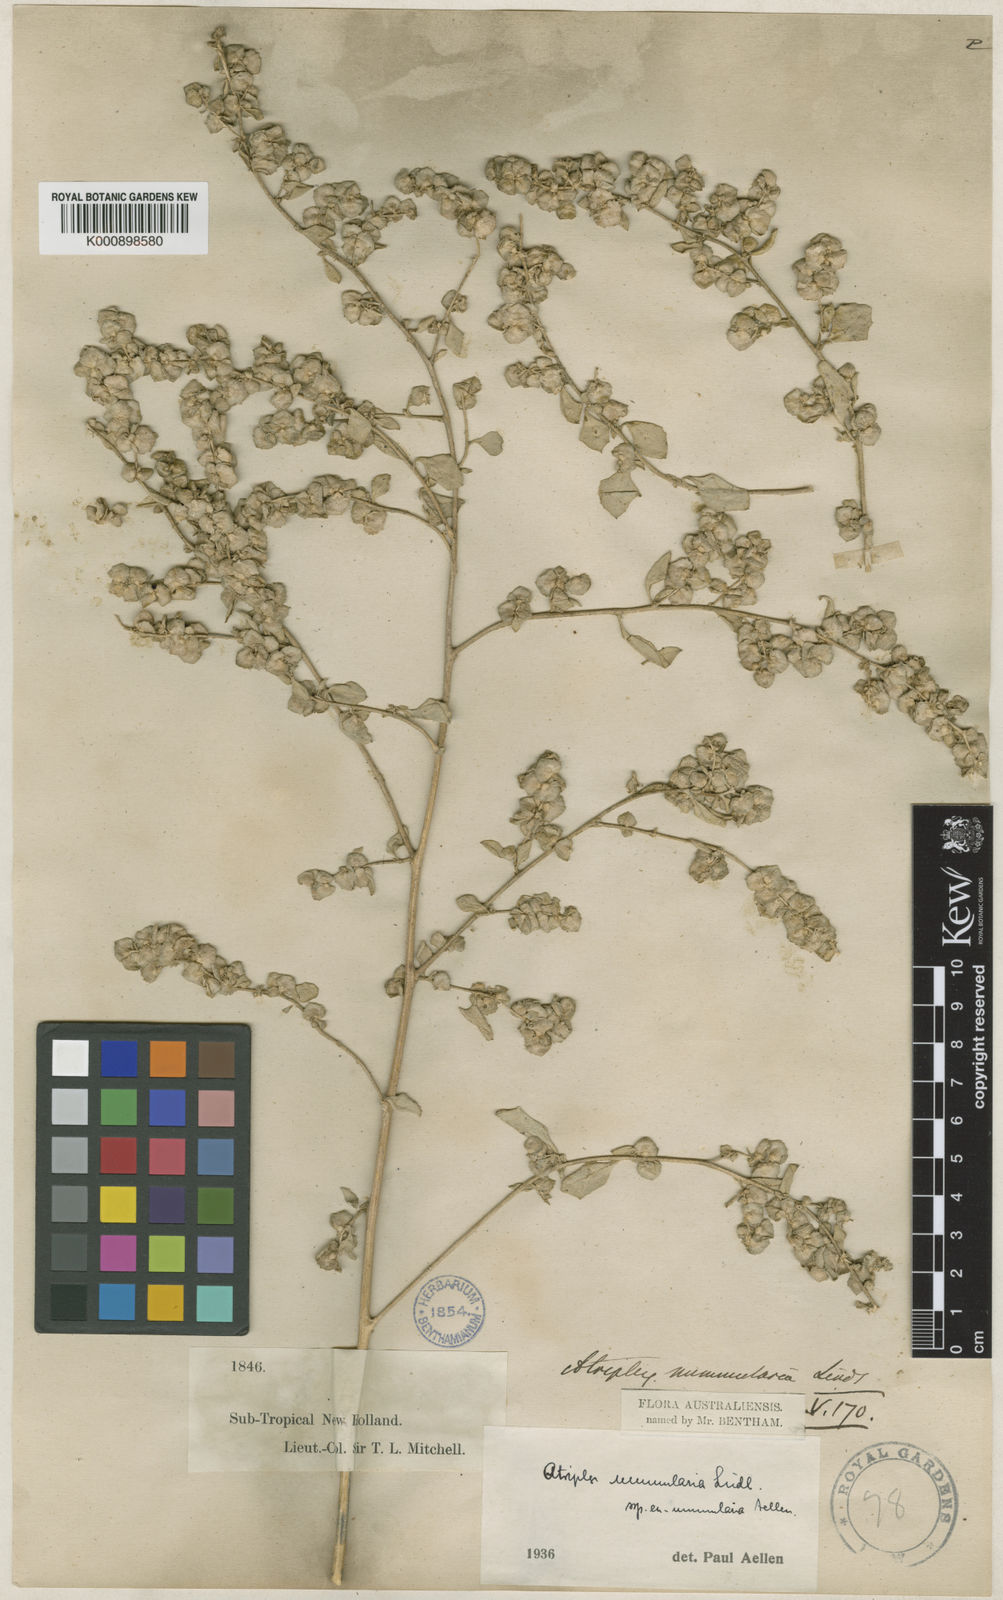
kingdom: Plantae
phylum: Tracheophyta
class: Magnoliopsida
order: Caryophyllales
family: Amaranthaceae
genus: Atriplex
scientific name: Atriplex nummularia
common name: Bluegreen saltbush
